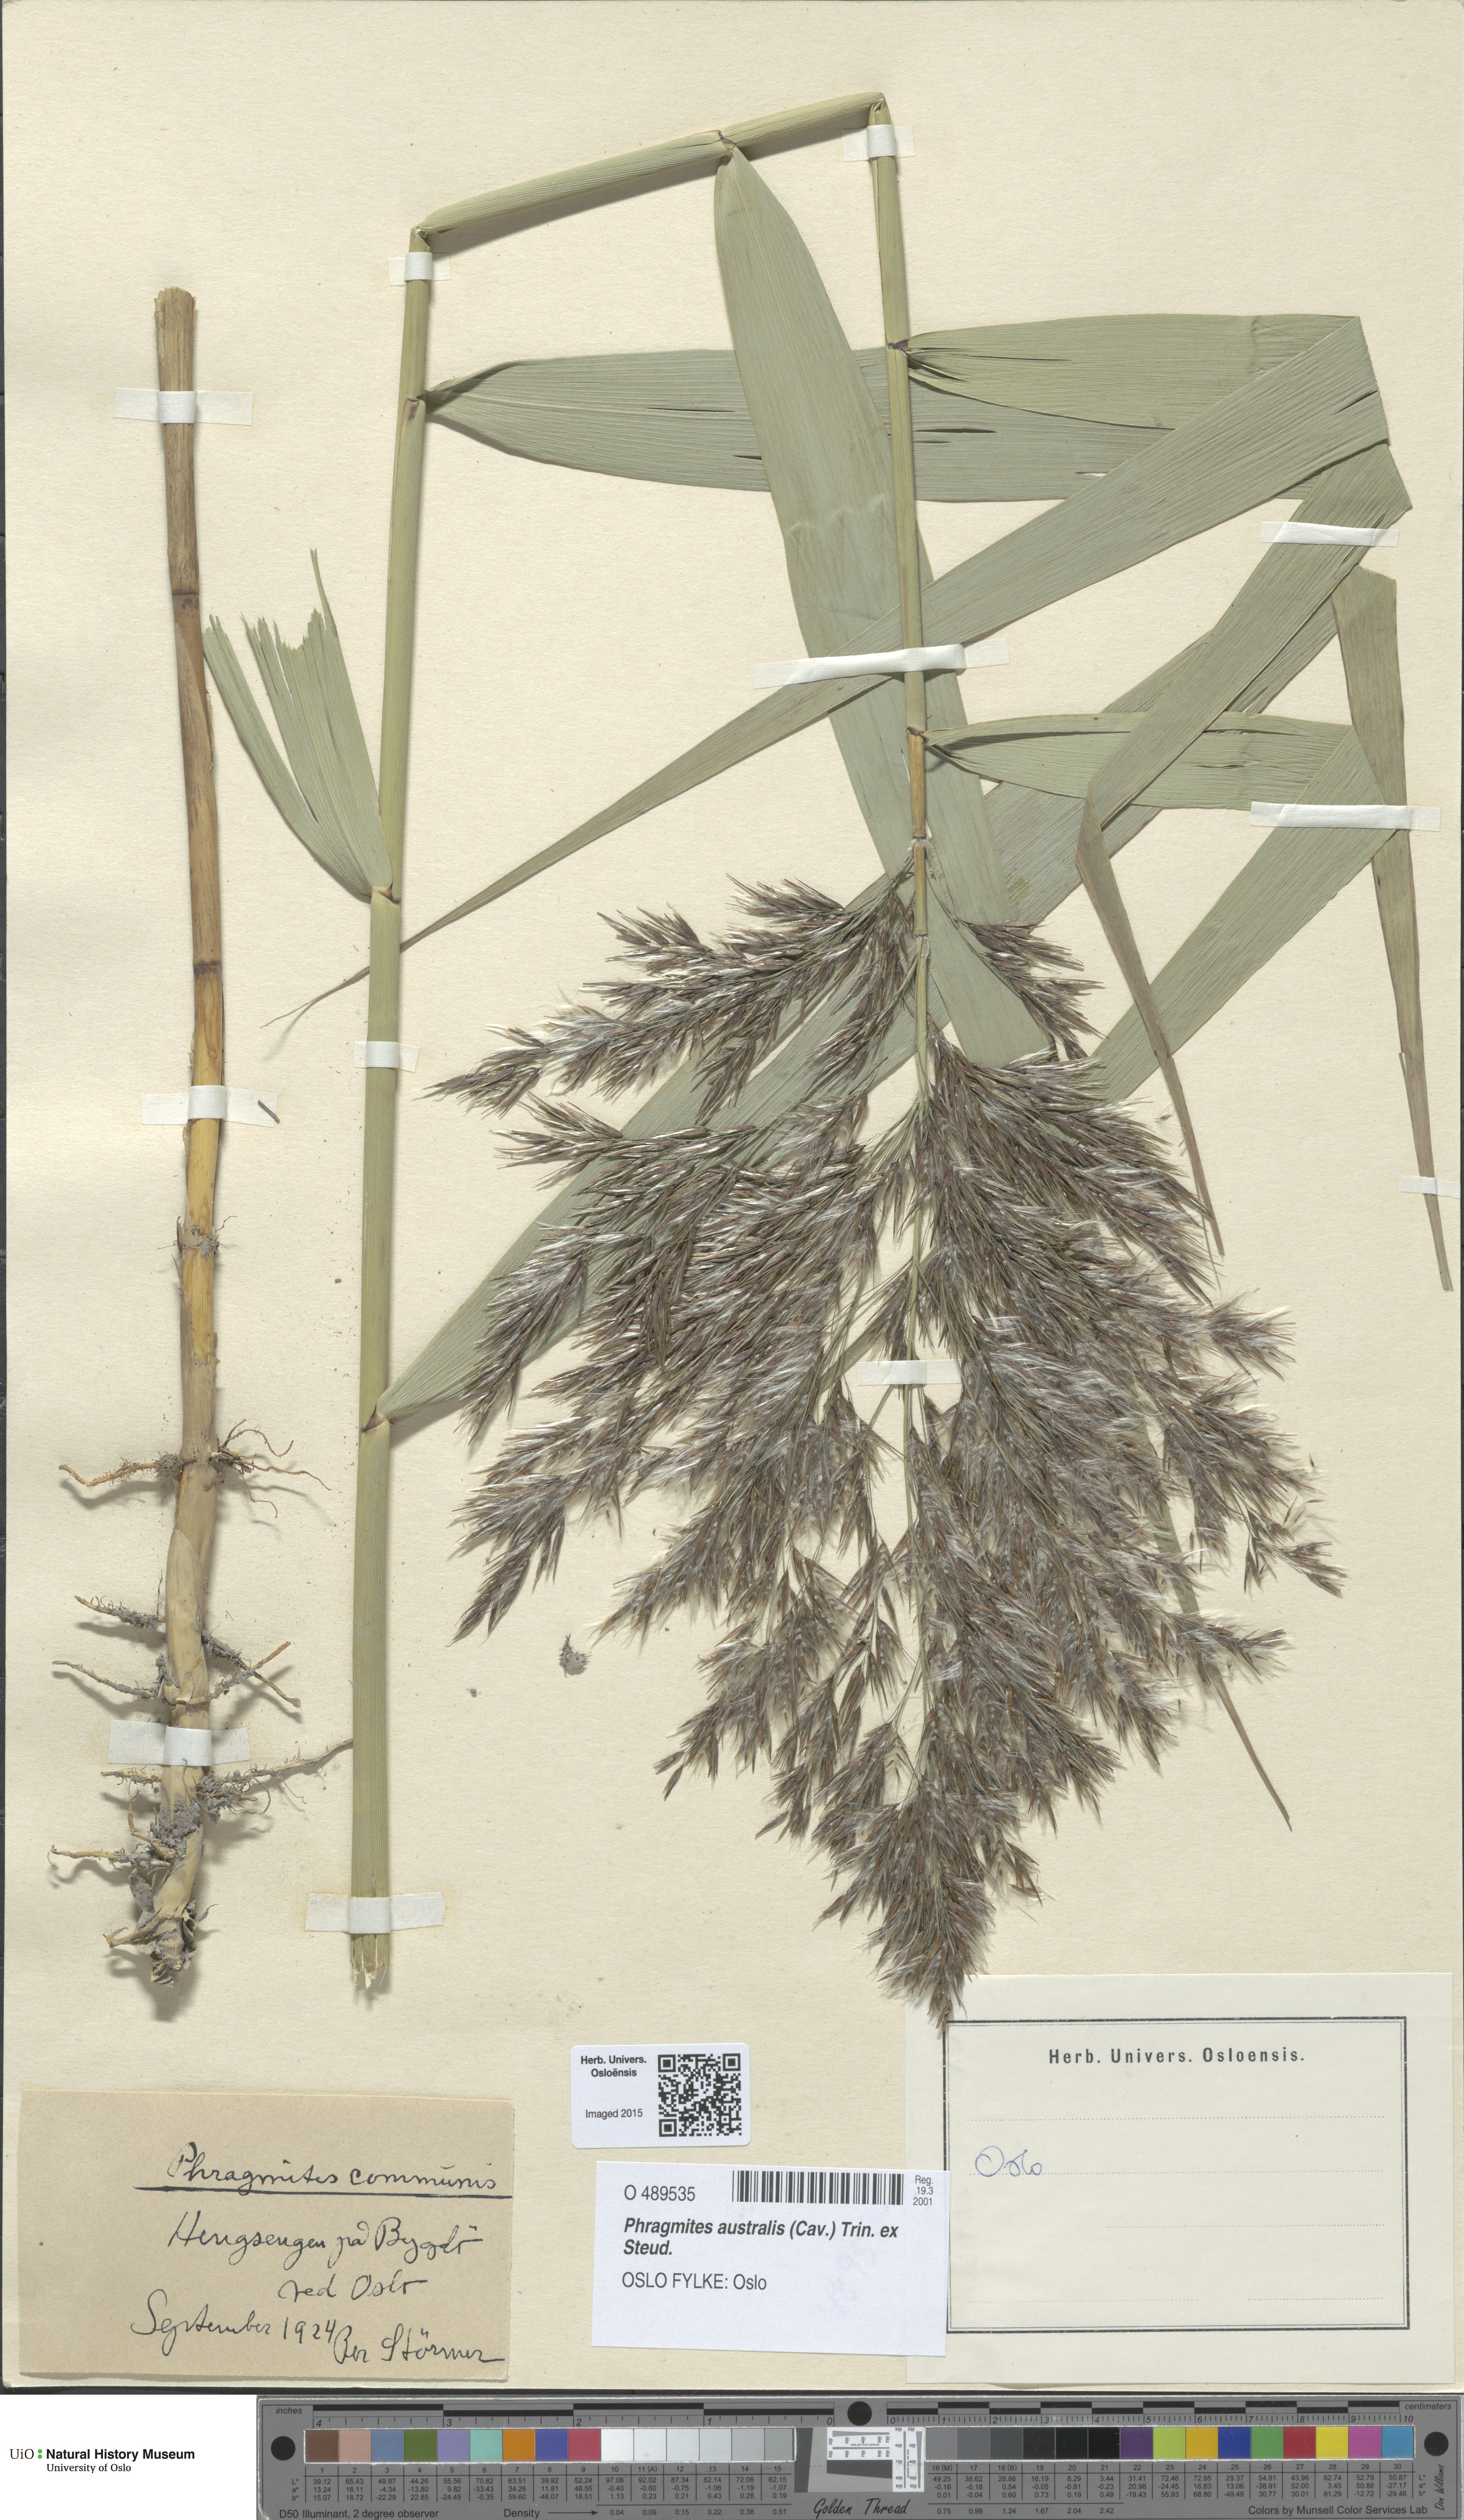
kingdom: Plantae
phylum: Tracheophyta
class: Liliopsida
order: Poales
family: Poaceae
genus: Phragmites
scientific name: Phragmites australis
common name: Common reed
